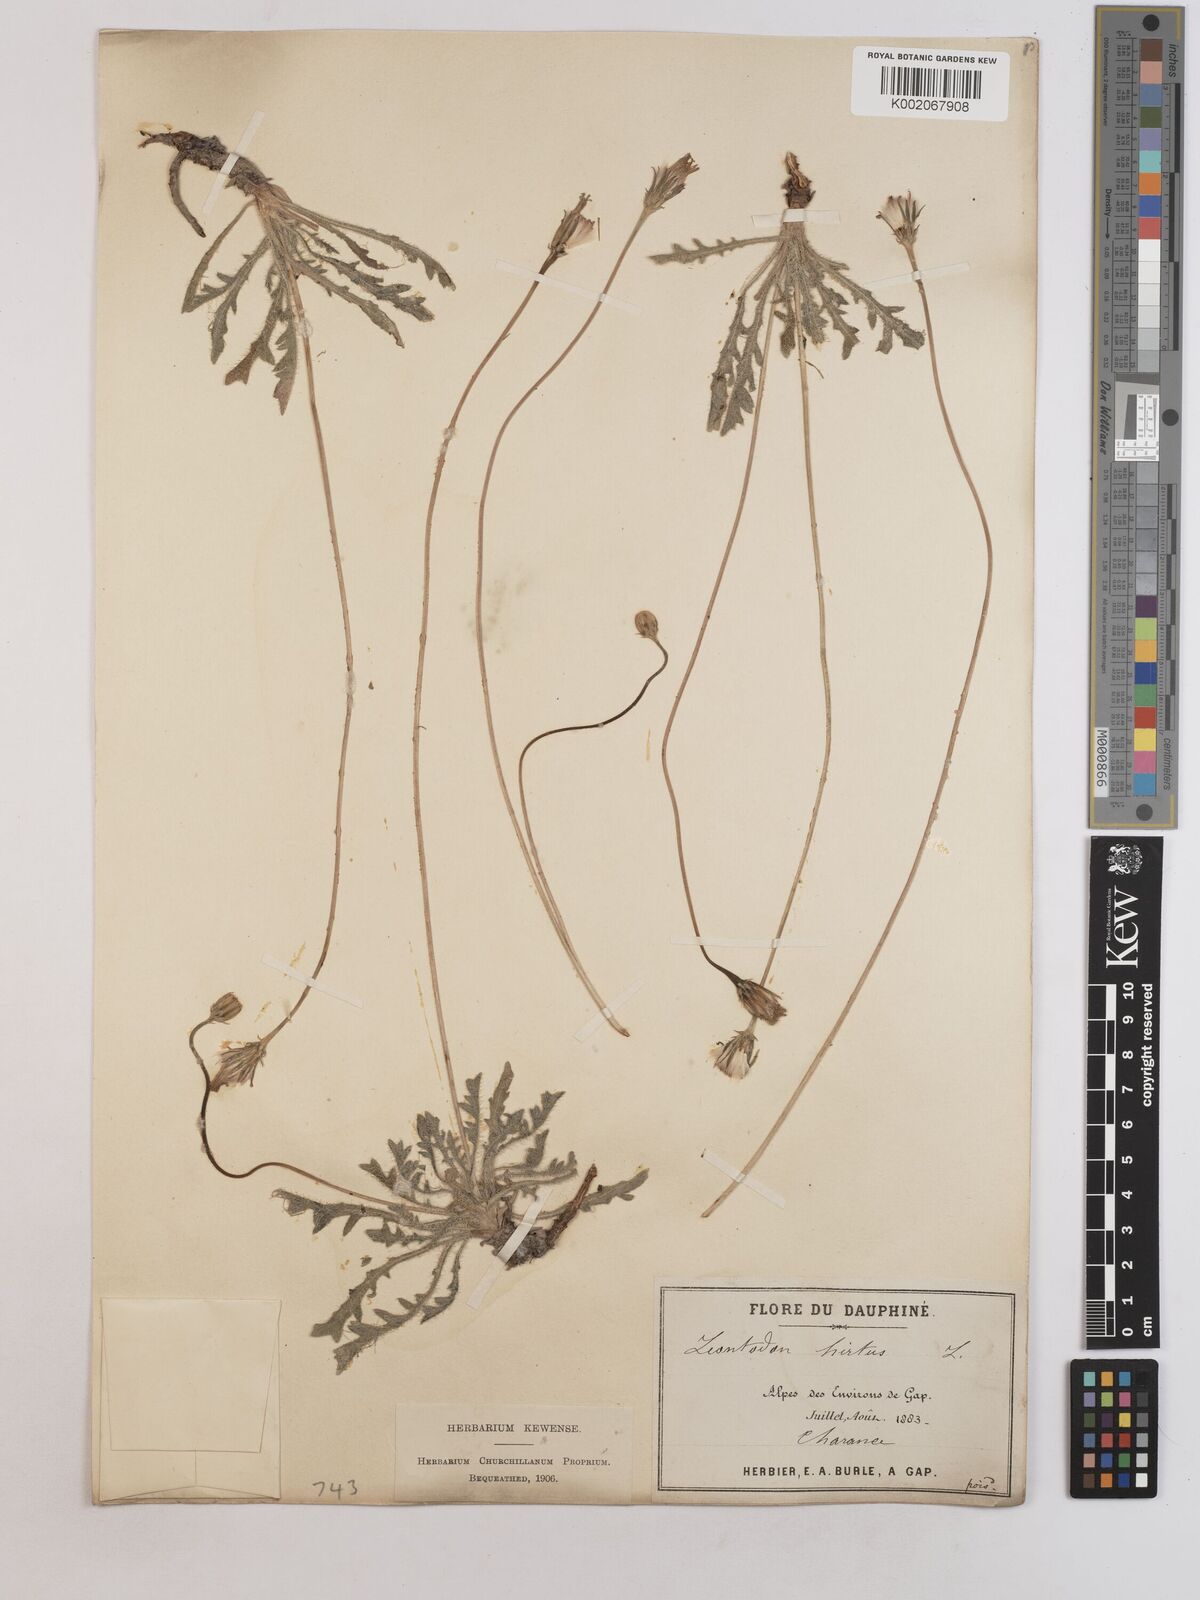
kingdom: Plantae
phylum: Tracheophyta
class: Magnoliopsida
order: Asterales
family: Asteraceae
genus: Leontodon
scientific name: Leontodon hirtus
